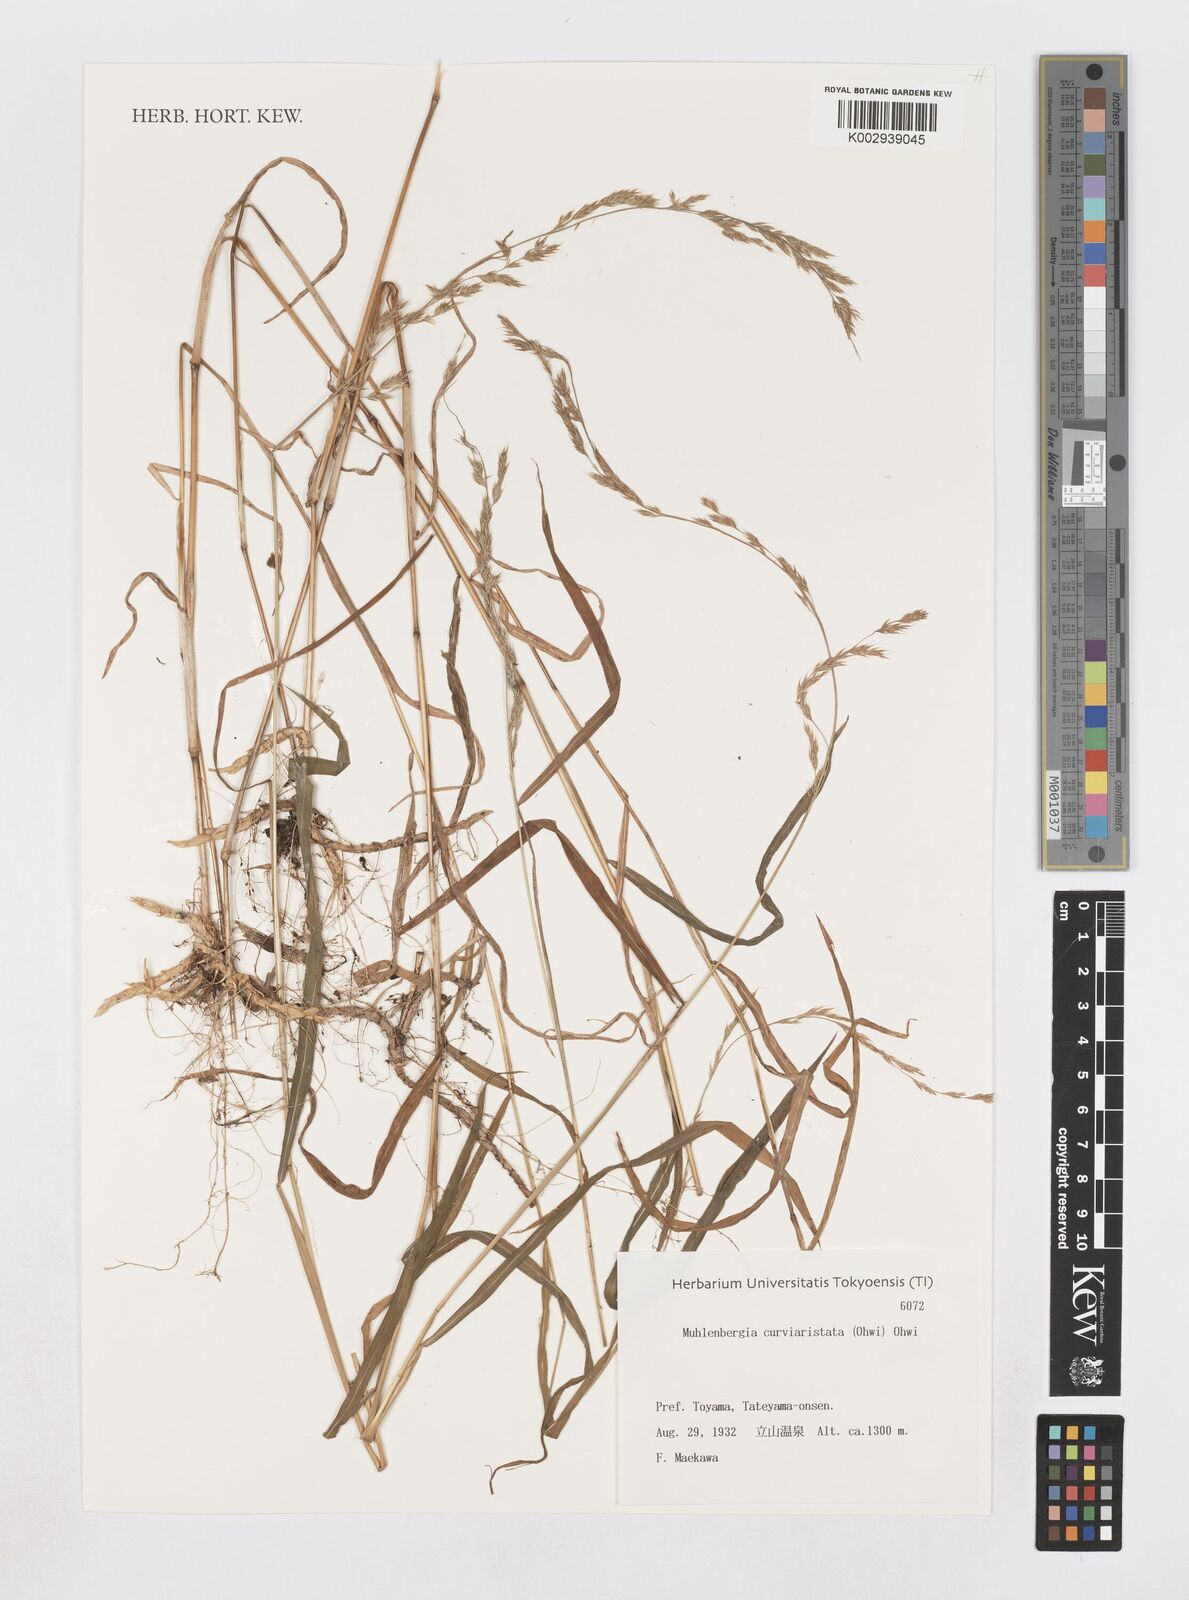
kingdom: Plantae
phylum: Tracheophyta
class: Liliopsida
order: Poales
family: Poaceae
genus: Muhlenbergia
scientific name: Muhlenbergia curviaristata
